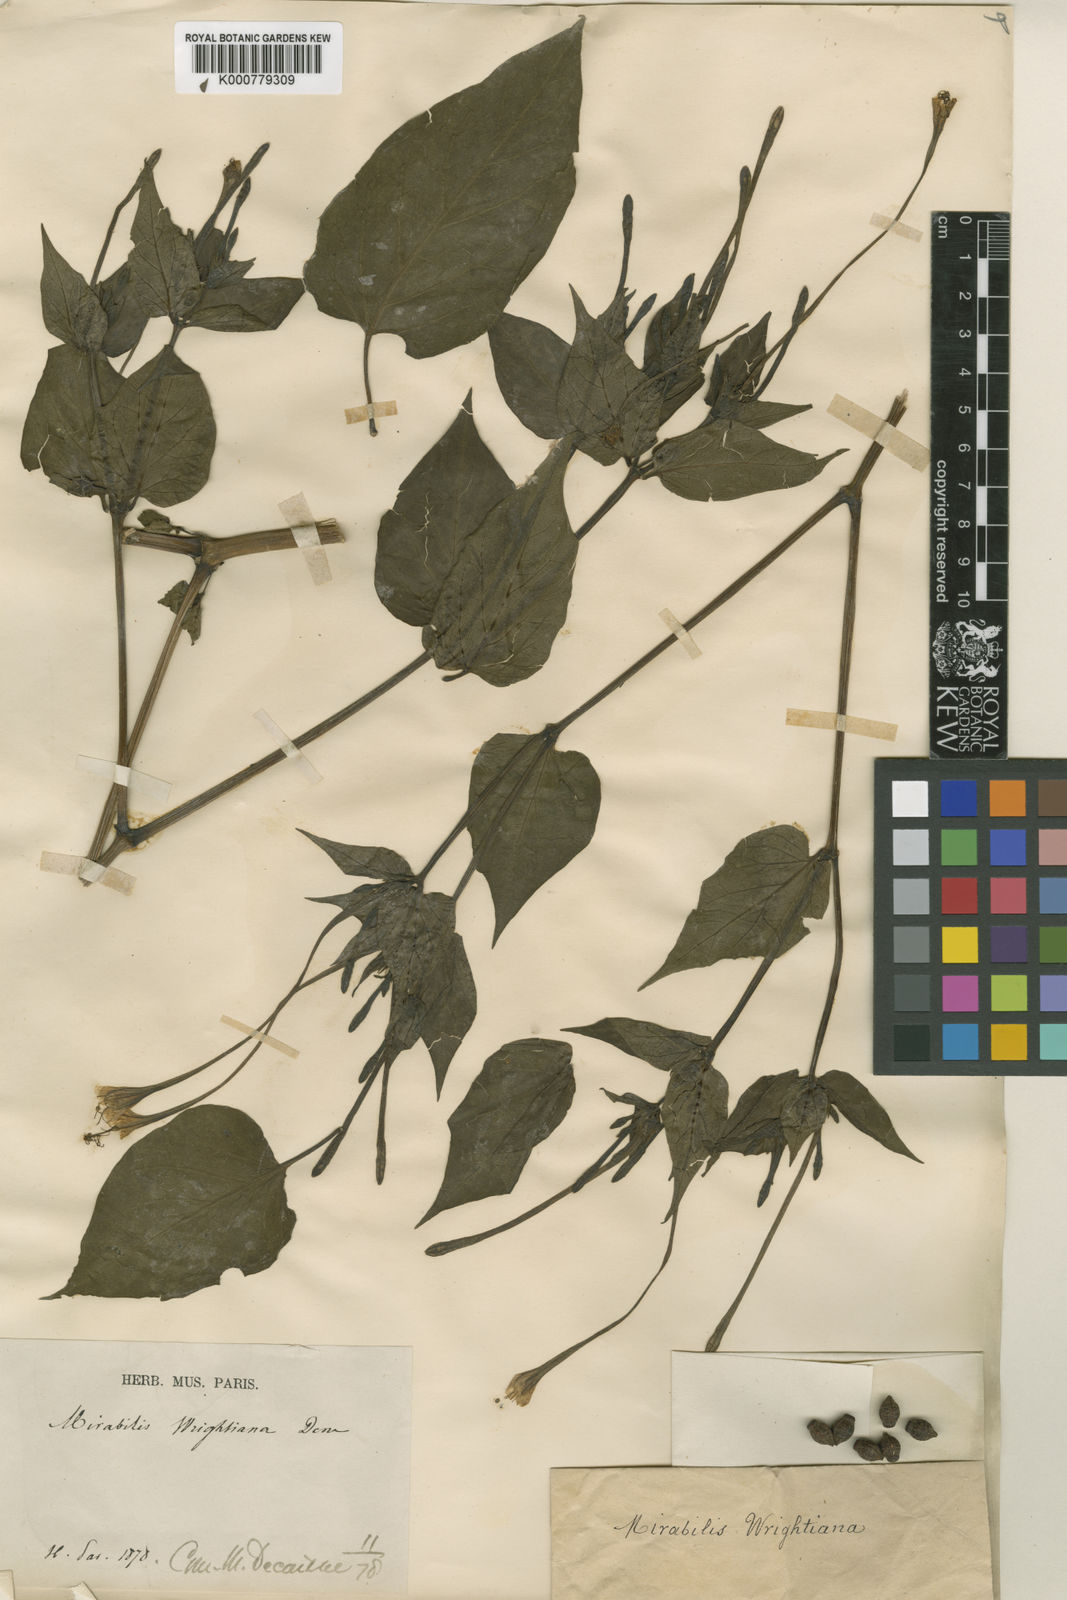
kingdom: Plantae
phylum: Tracheophyta
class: Magnoliopsida
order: Caryophyllales
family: Nyctaginaceae
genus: Mirabilis
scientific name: Mirabilis longiflora
